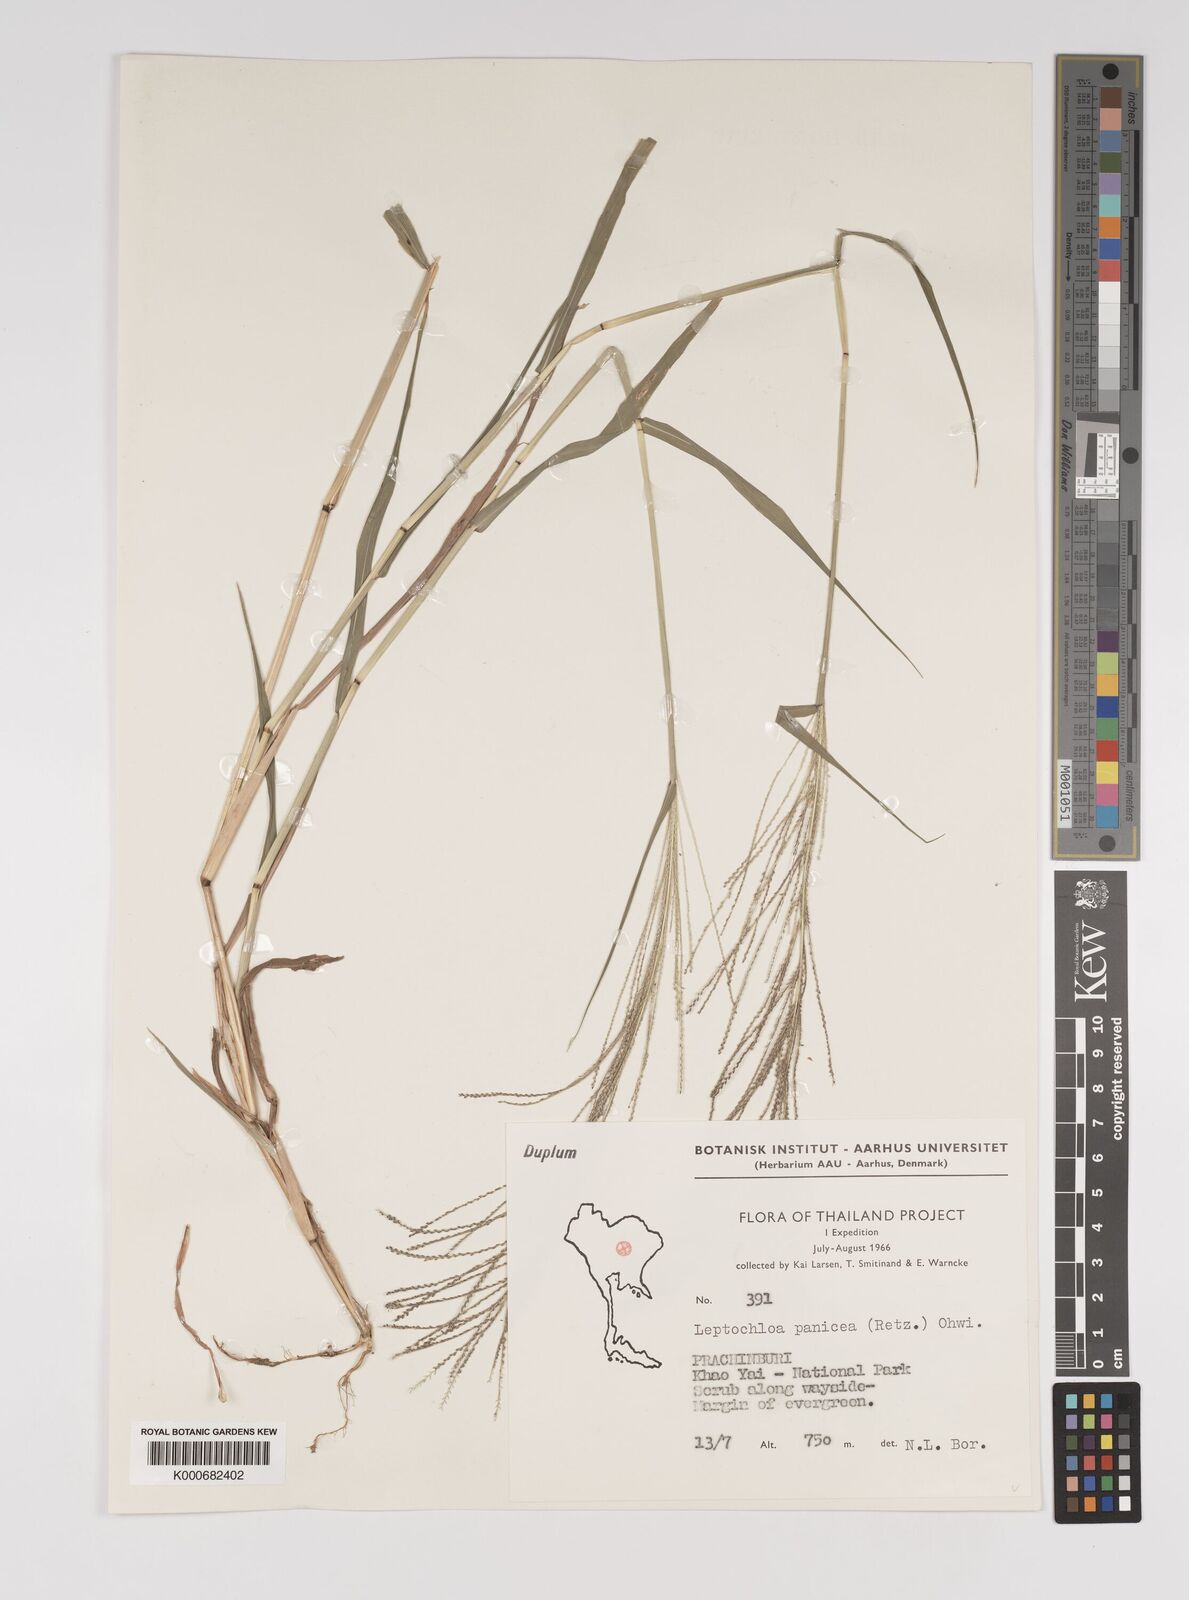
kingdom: Plantae
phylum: Tracheophyta
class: Liliopsida
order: Poales
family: Poaceae
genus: Leptochloa
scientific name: Leptochloa panicea
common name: Mucronate sprangletop
